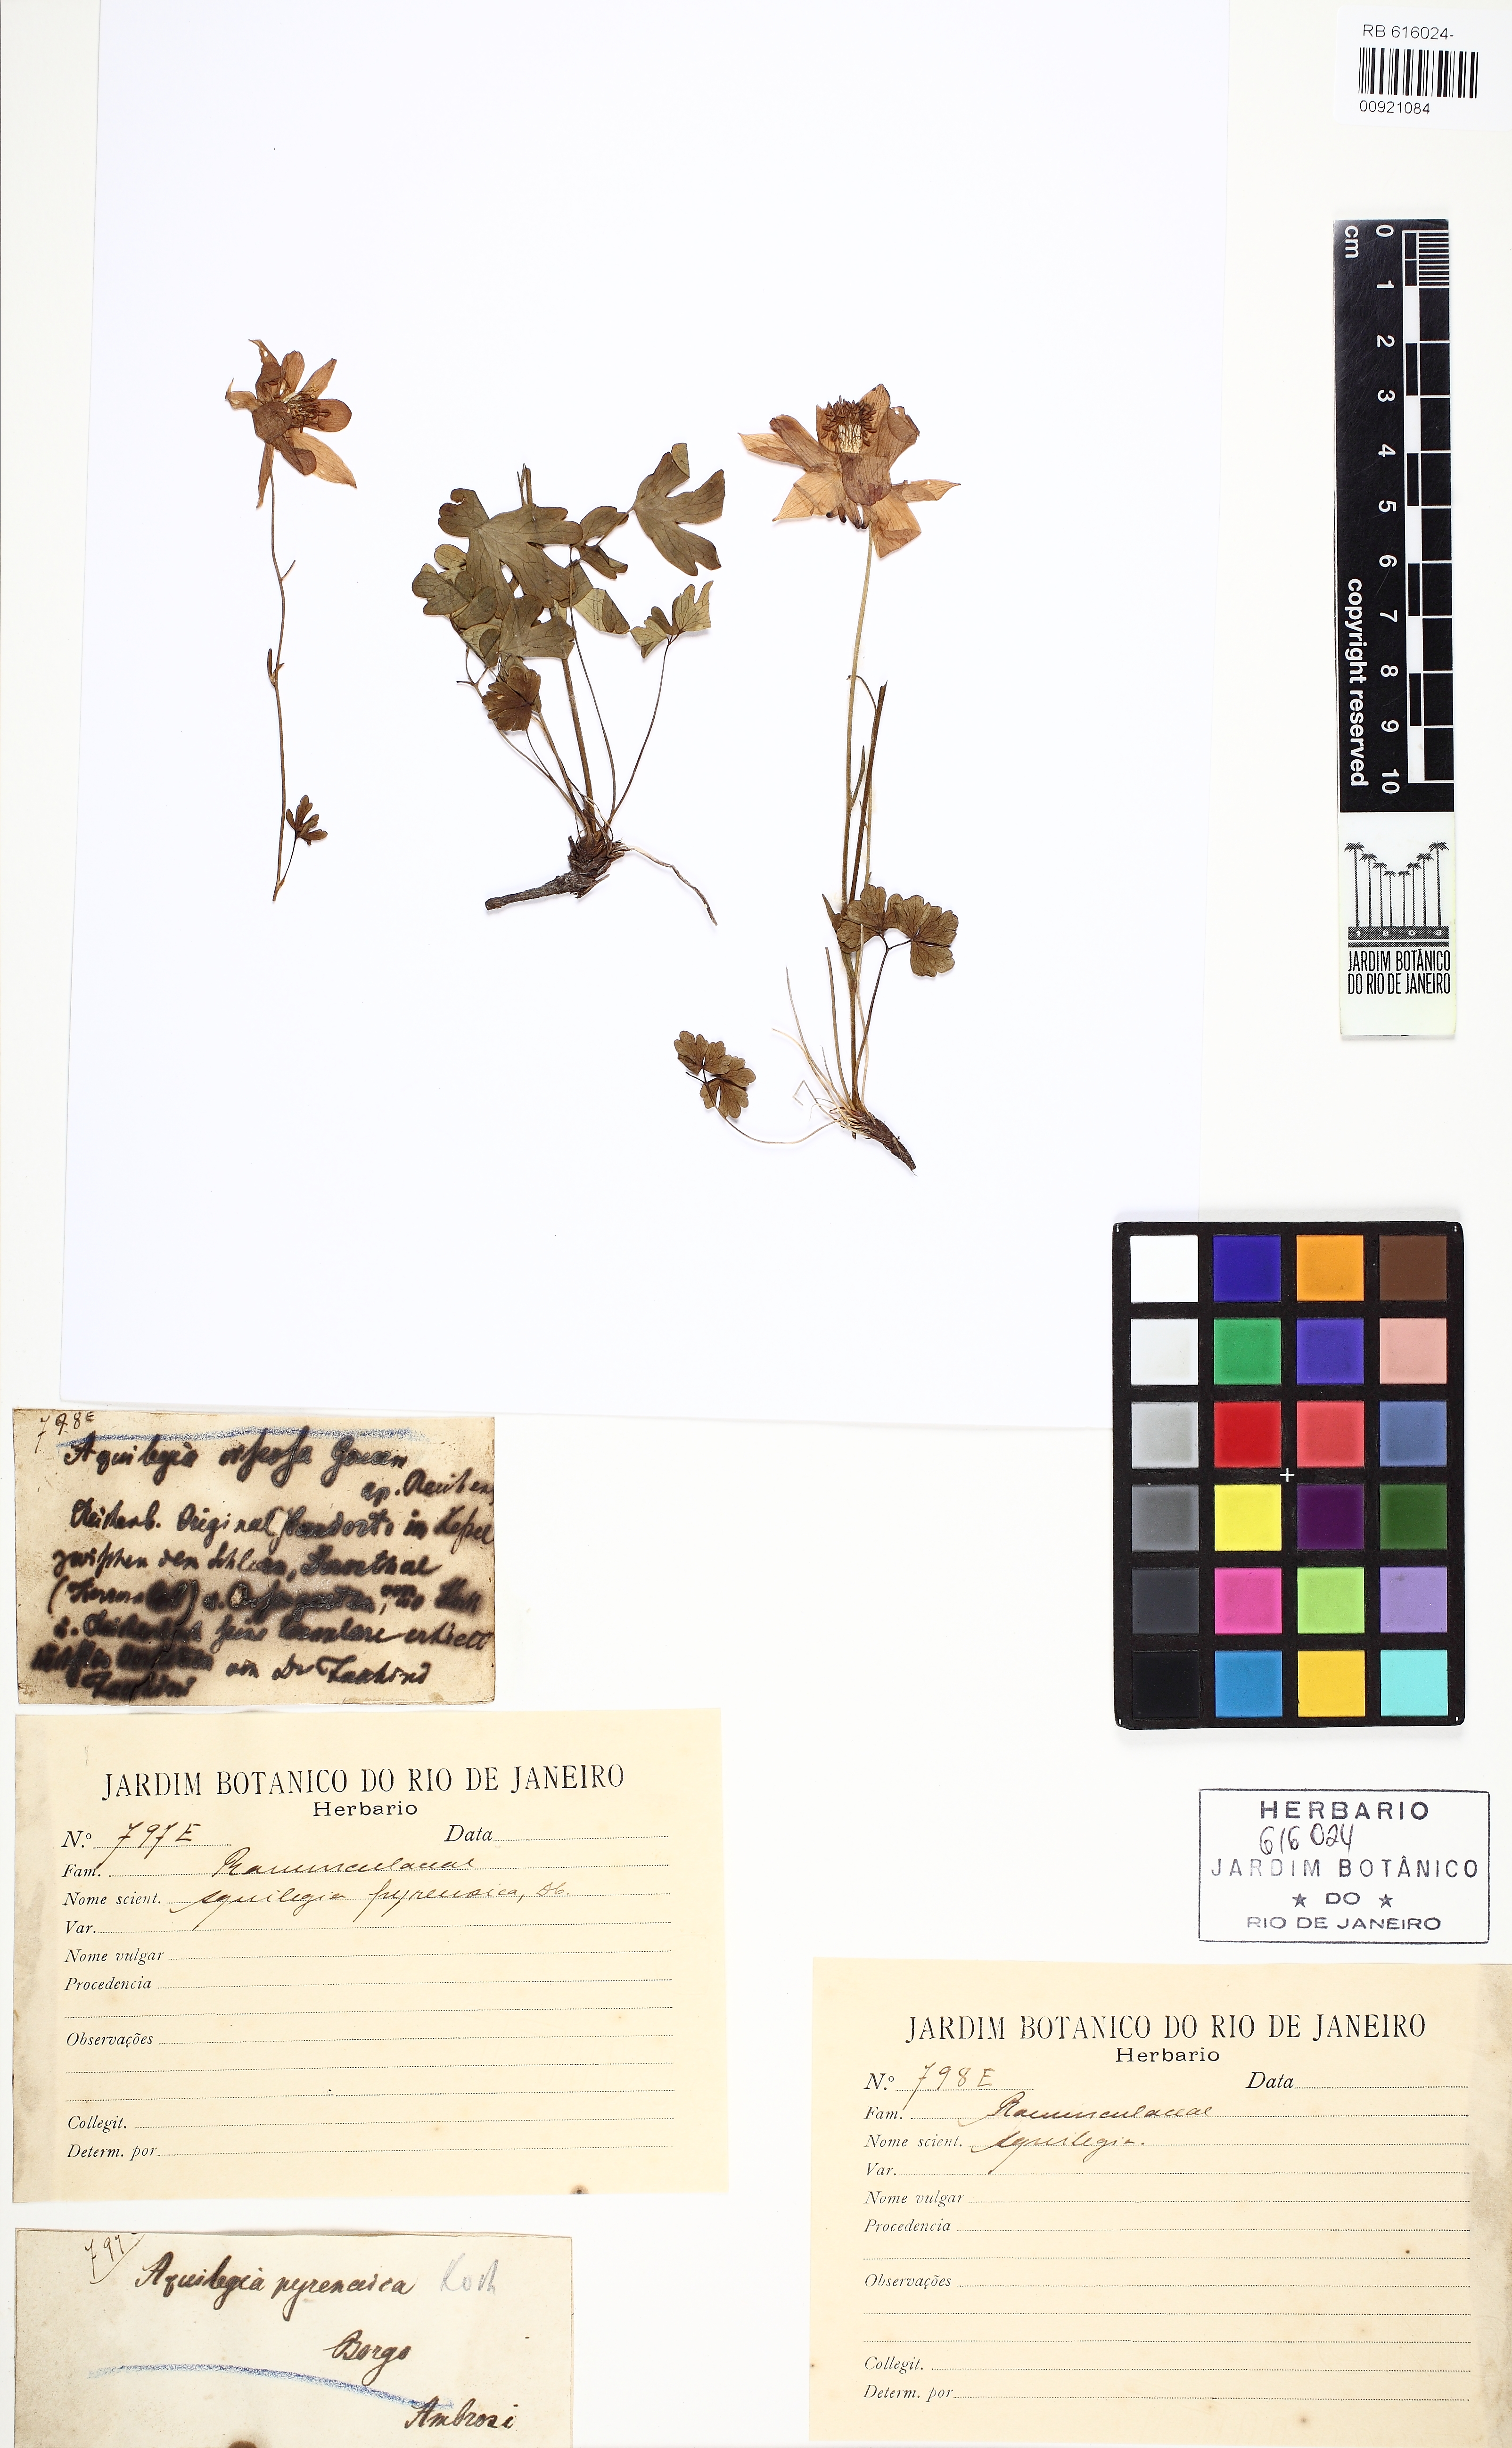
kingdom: Plantae
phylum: Tracheophyta
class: Magnoliopsida
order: Ranunculales
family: Ranunculaceae
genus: Aquilegia
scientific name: Aquilegia pyrenaica
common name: Pyrenean columbine
